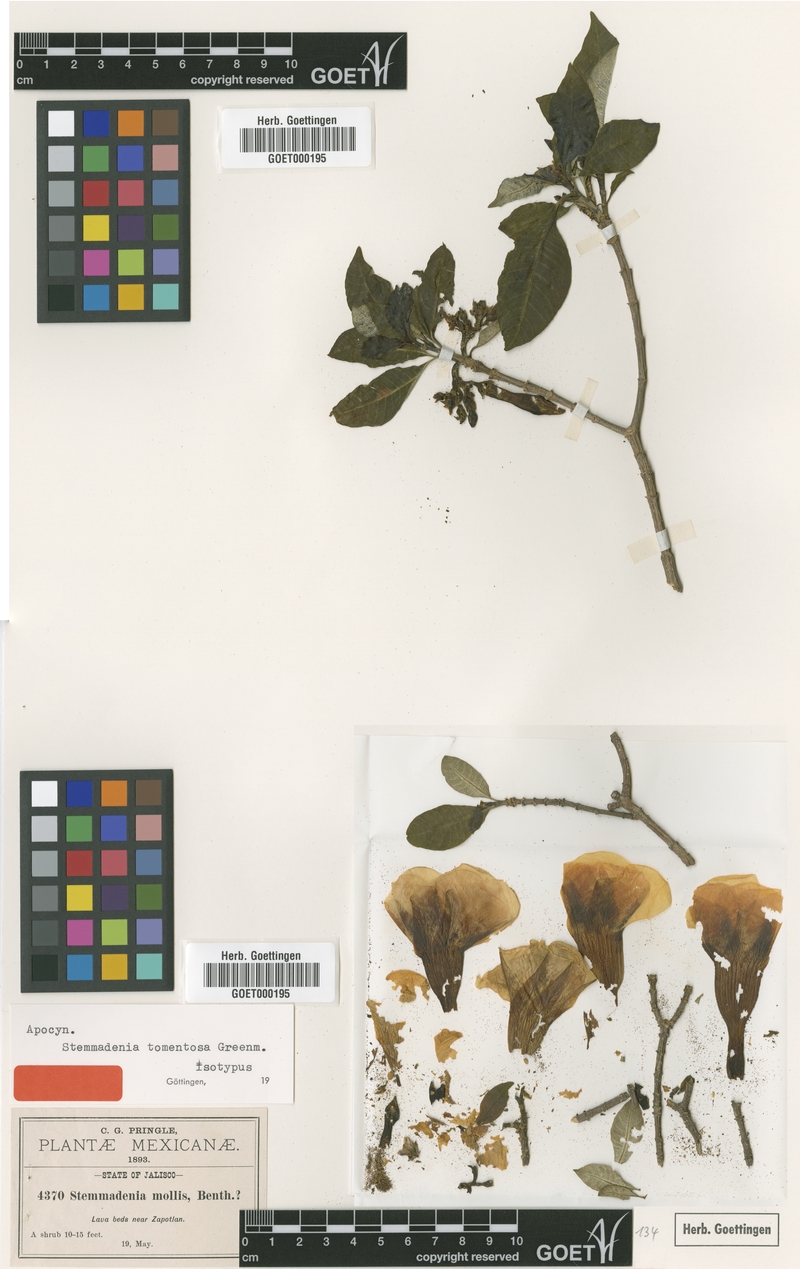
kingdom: Plantae
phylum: Tracheophyta
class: Magnoliopsida
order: Gentianales
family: Apocynaceae
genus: Tabernaemontana
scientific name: Tabernaemontana tomentosa
